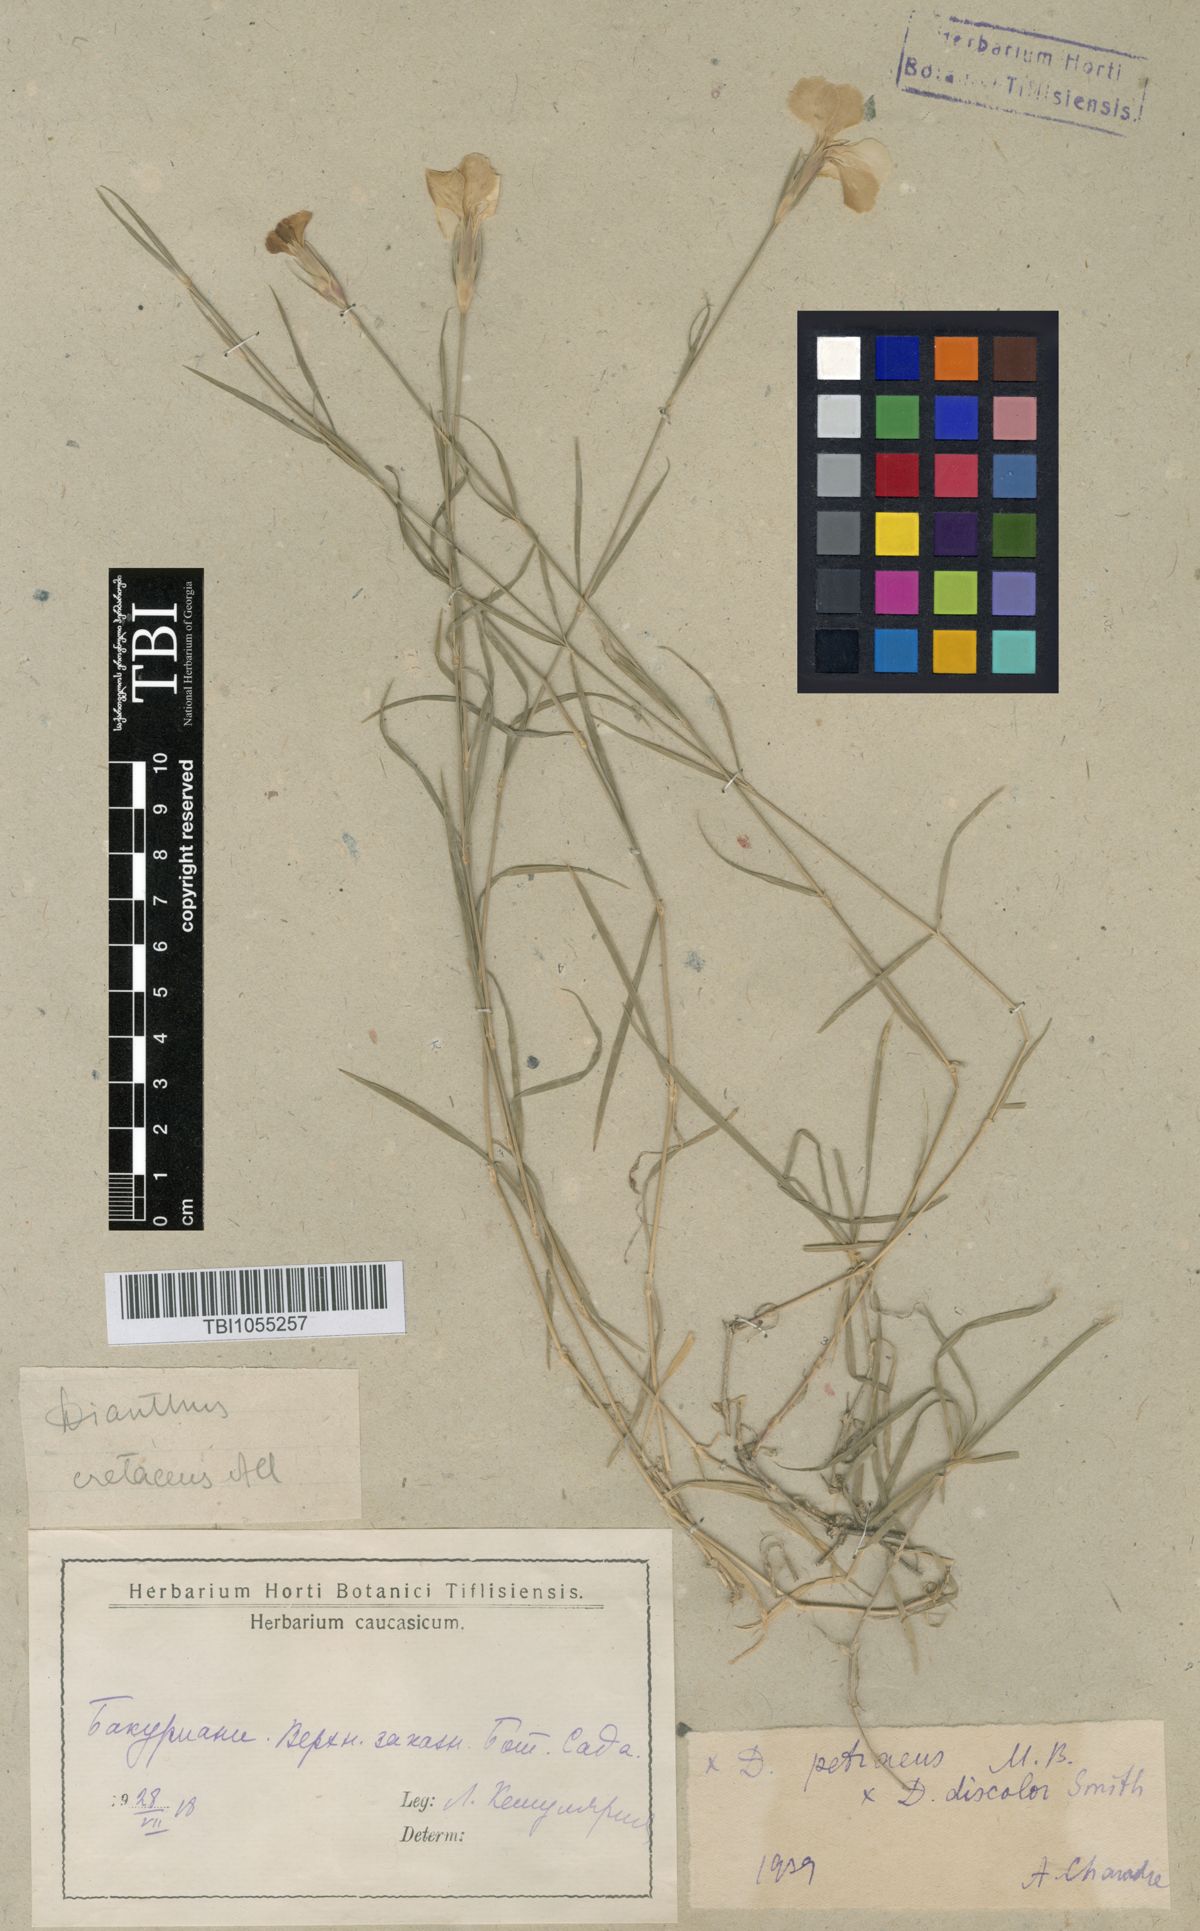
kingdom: Plantae
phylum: Tracheophyta
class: Magnoliopsida
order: Caryophyllales
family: Caryophyllaceae
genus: Dianthus
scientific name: Dianthus cretaceus
